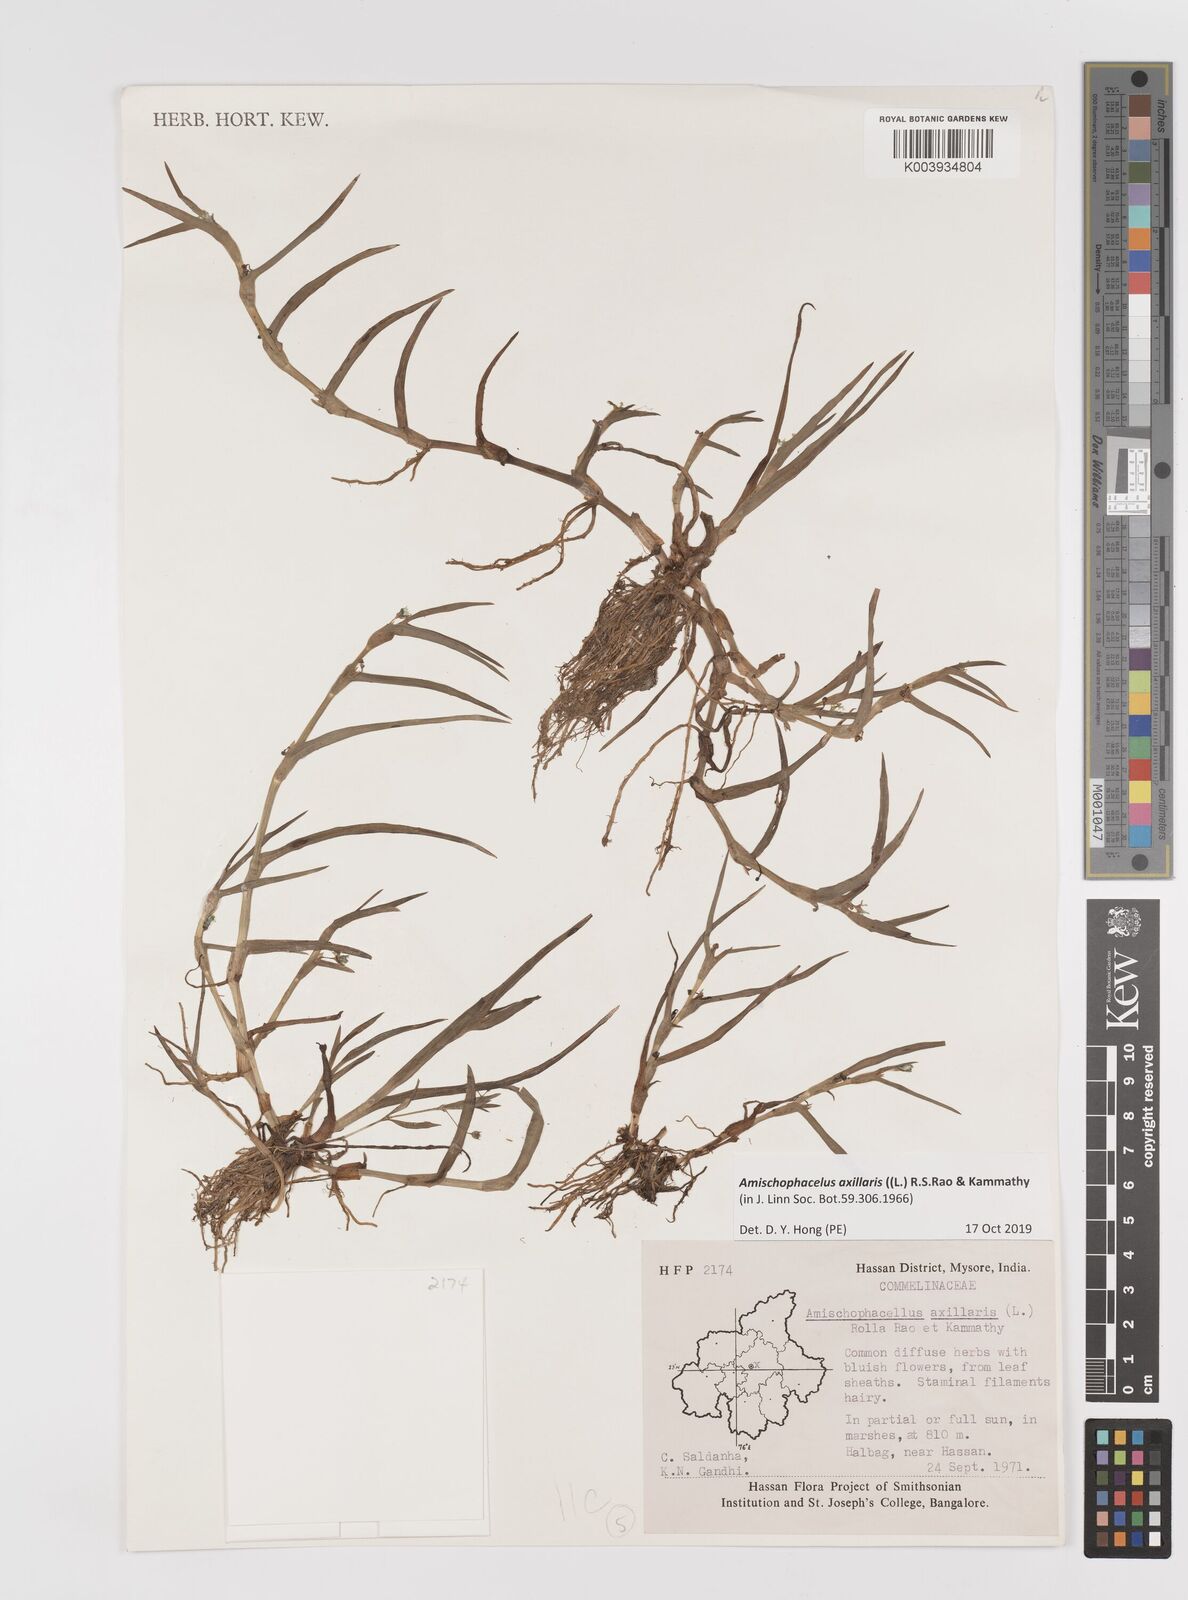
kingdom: Plantae
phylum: Tracheophyta
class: Liliopsida
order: Commelinales
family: Commelinaceae
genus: Cyanotis
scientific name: Cyanotis axillaris
